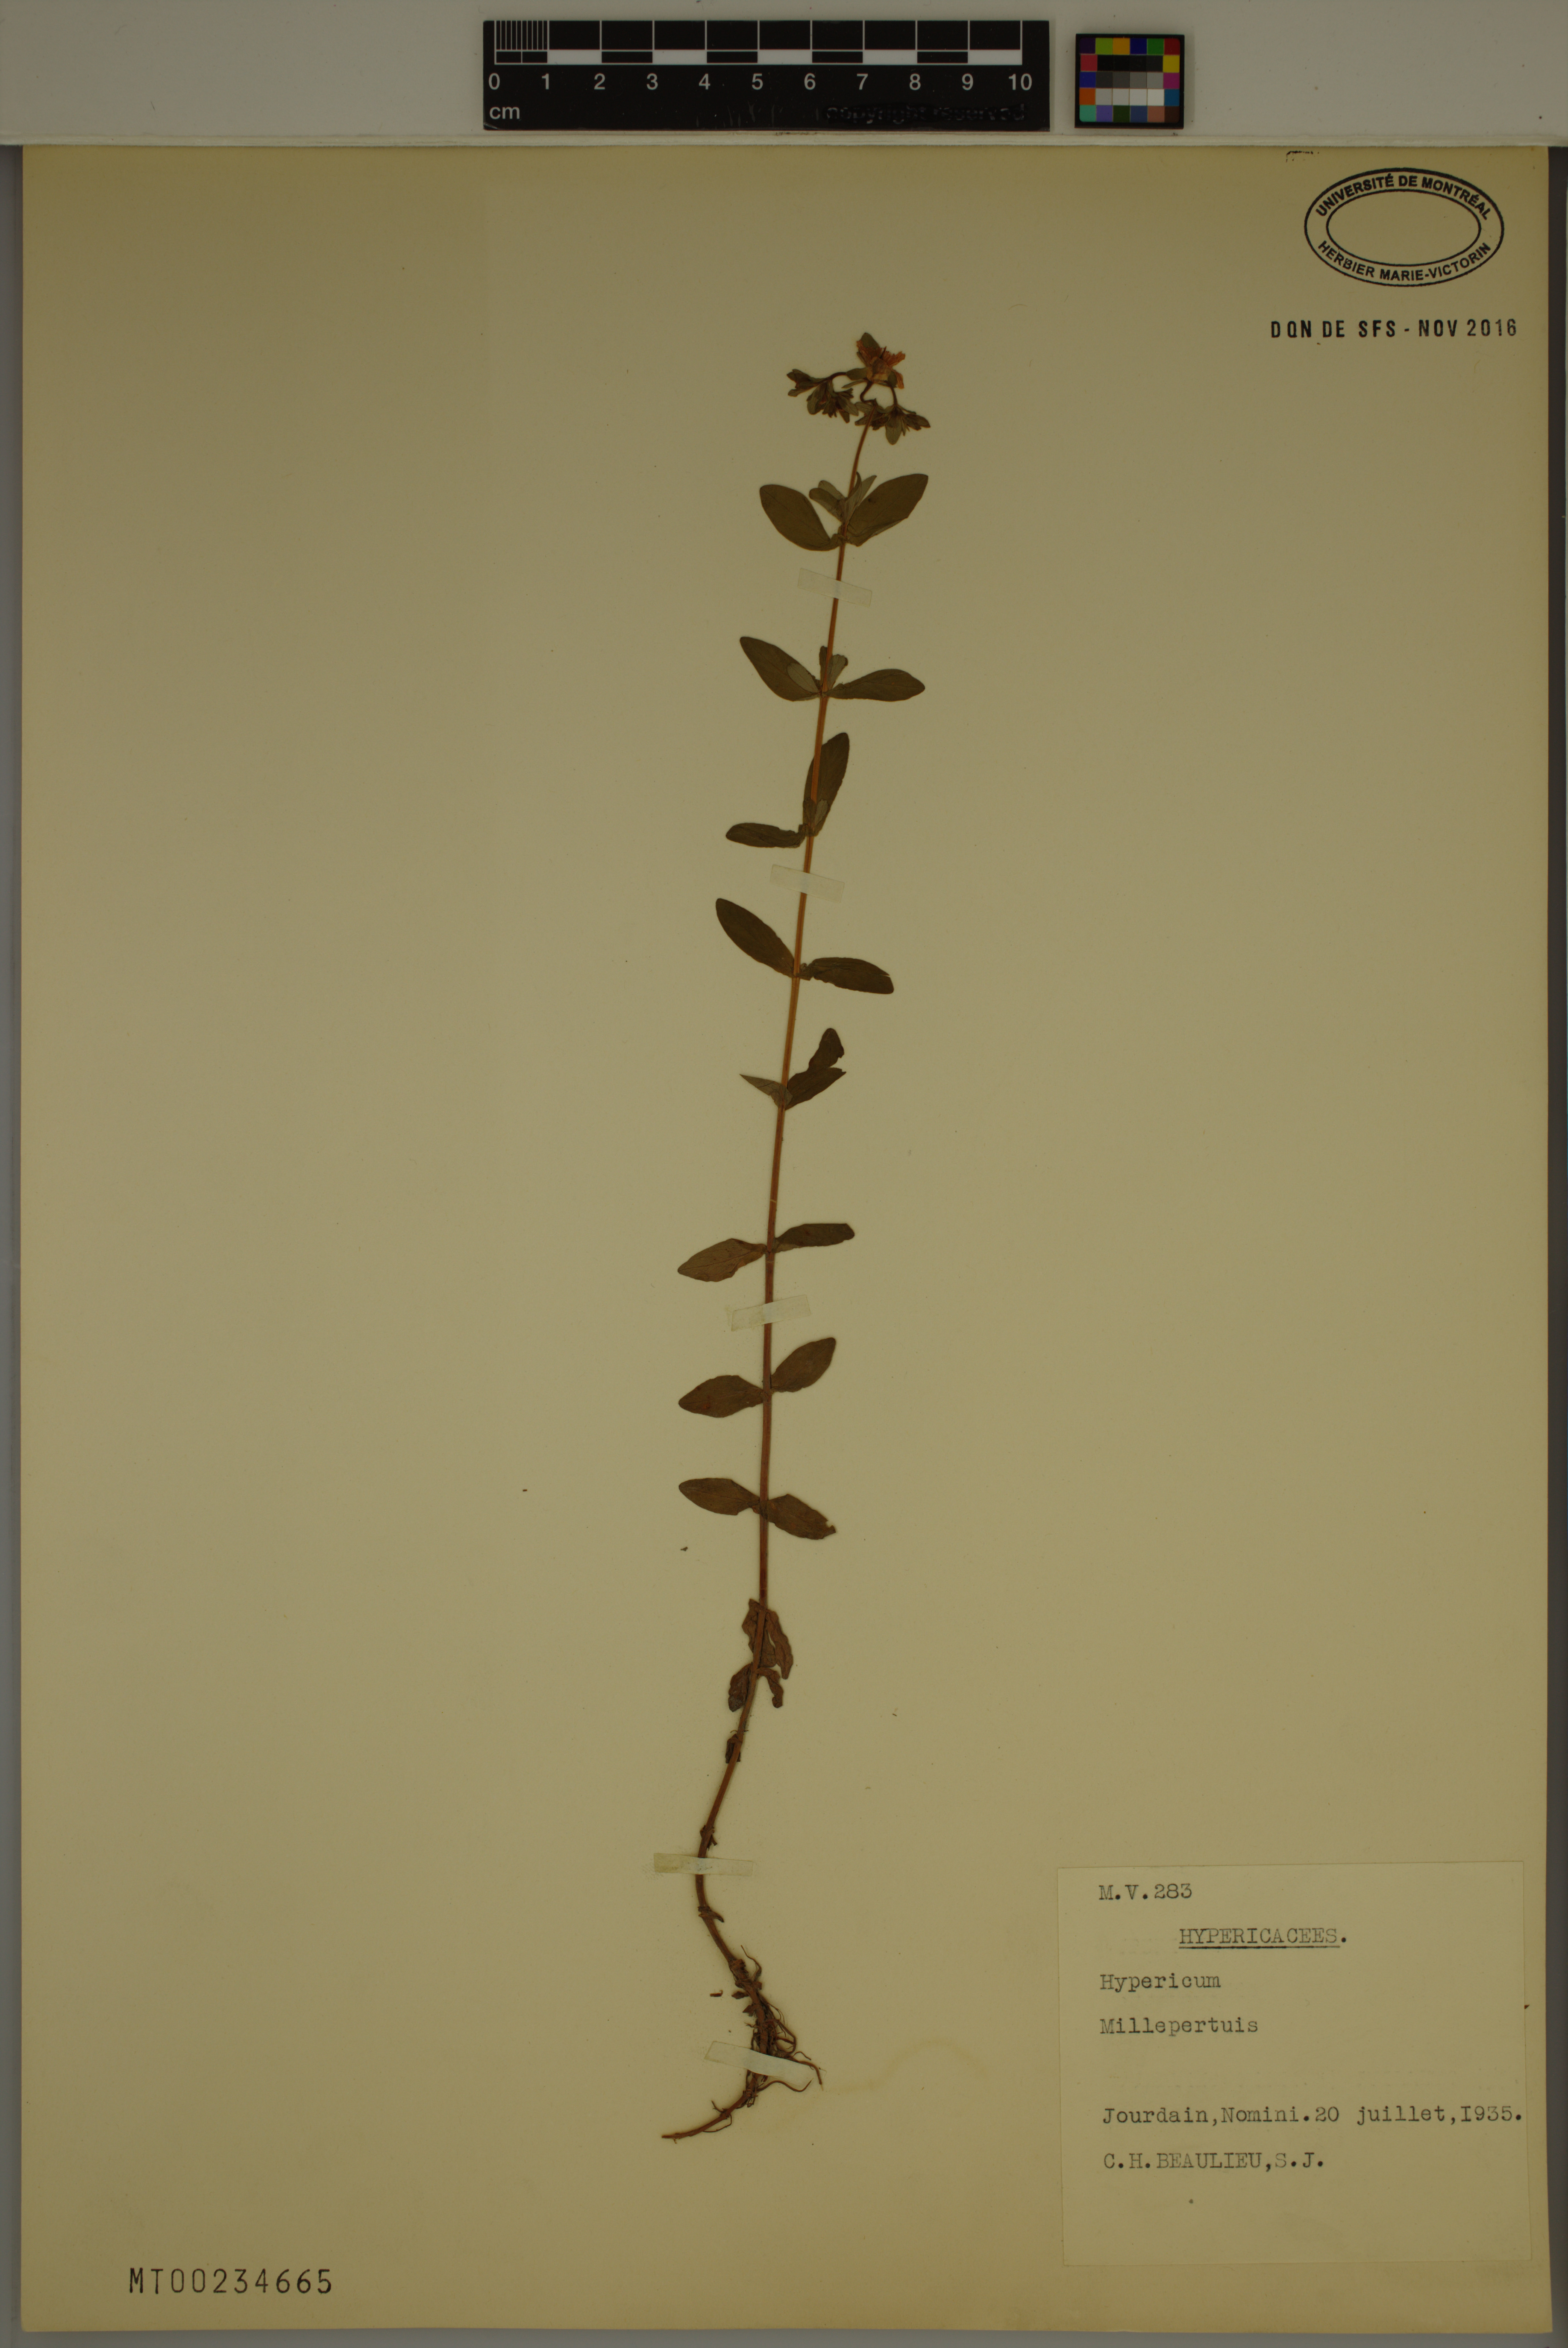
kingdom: Plantae
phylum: Tracheophyta
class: Magnoliopsida
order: Malpighiales
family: Hypericaceae
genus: Hypericum
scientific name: Hypericum
